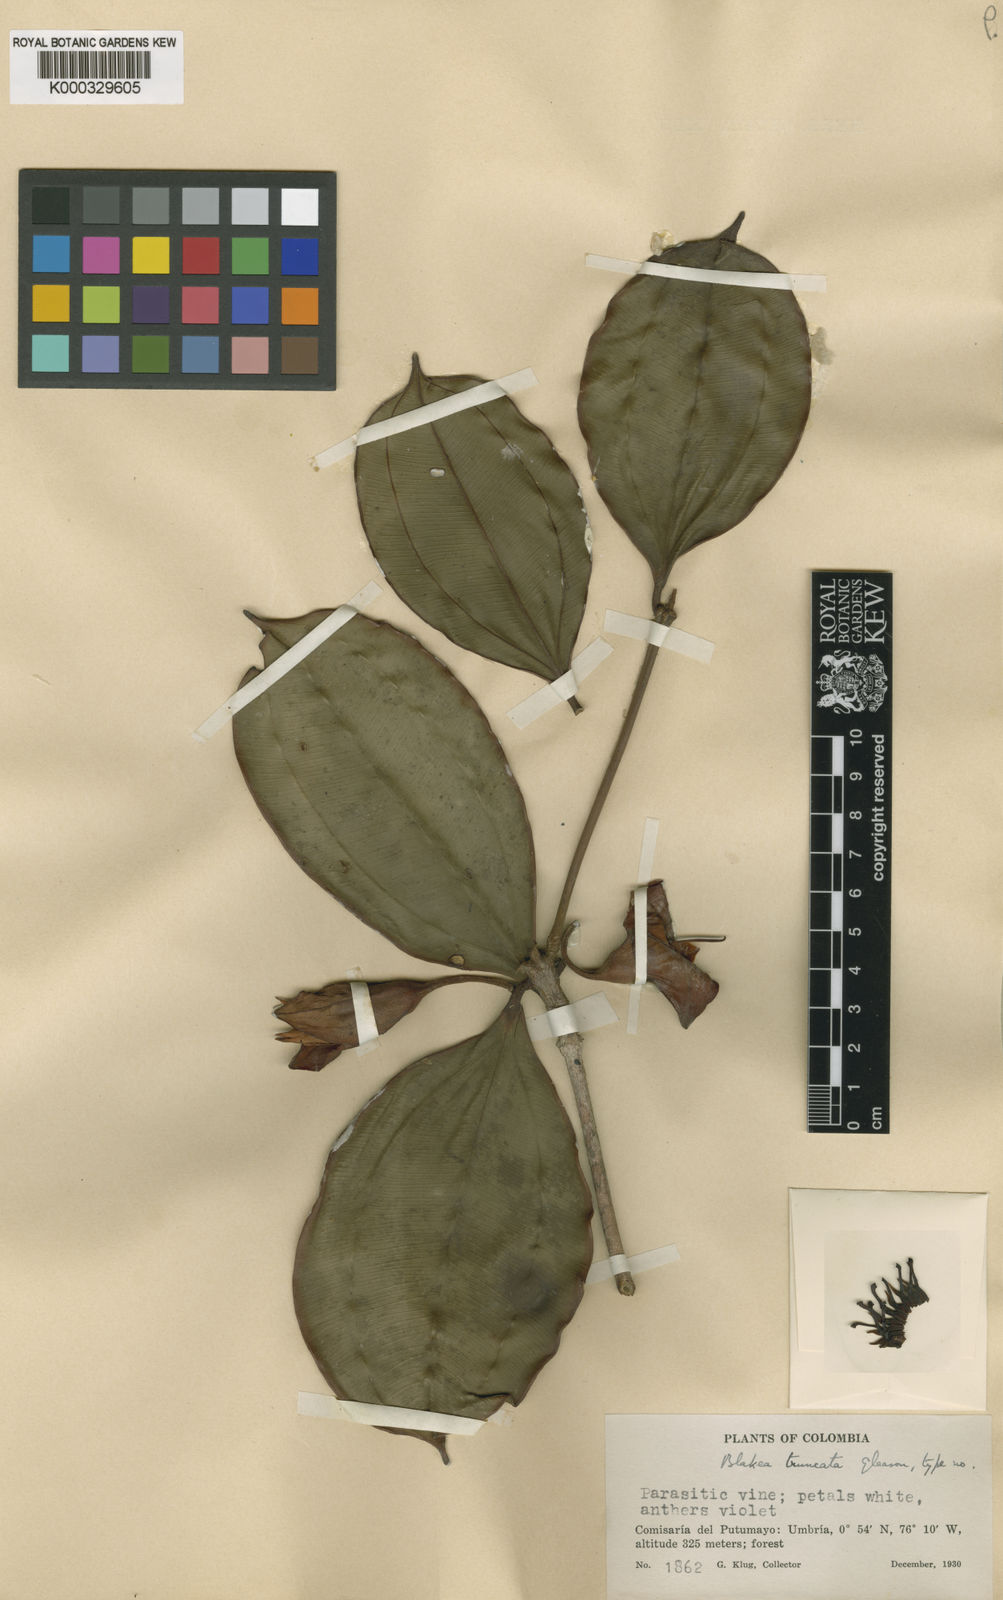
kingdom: Plantae
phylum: Tracheophyta
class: Magnoliopsida
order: Myrtales
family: Melastomataceae
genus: Blakea
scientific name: Blakea truncata
